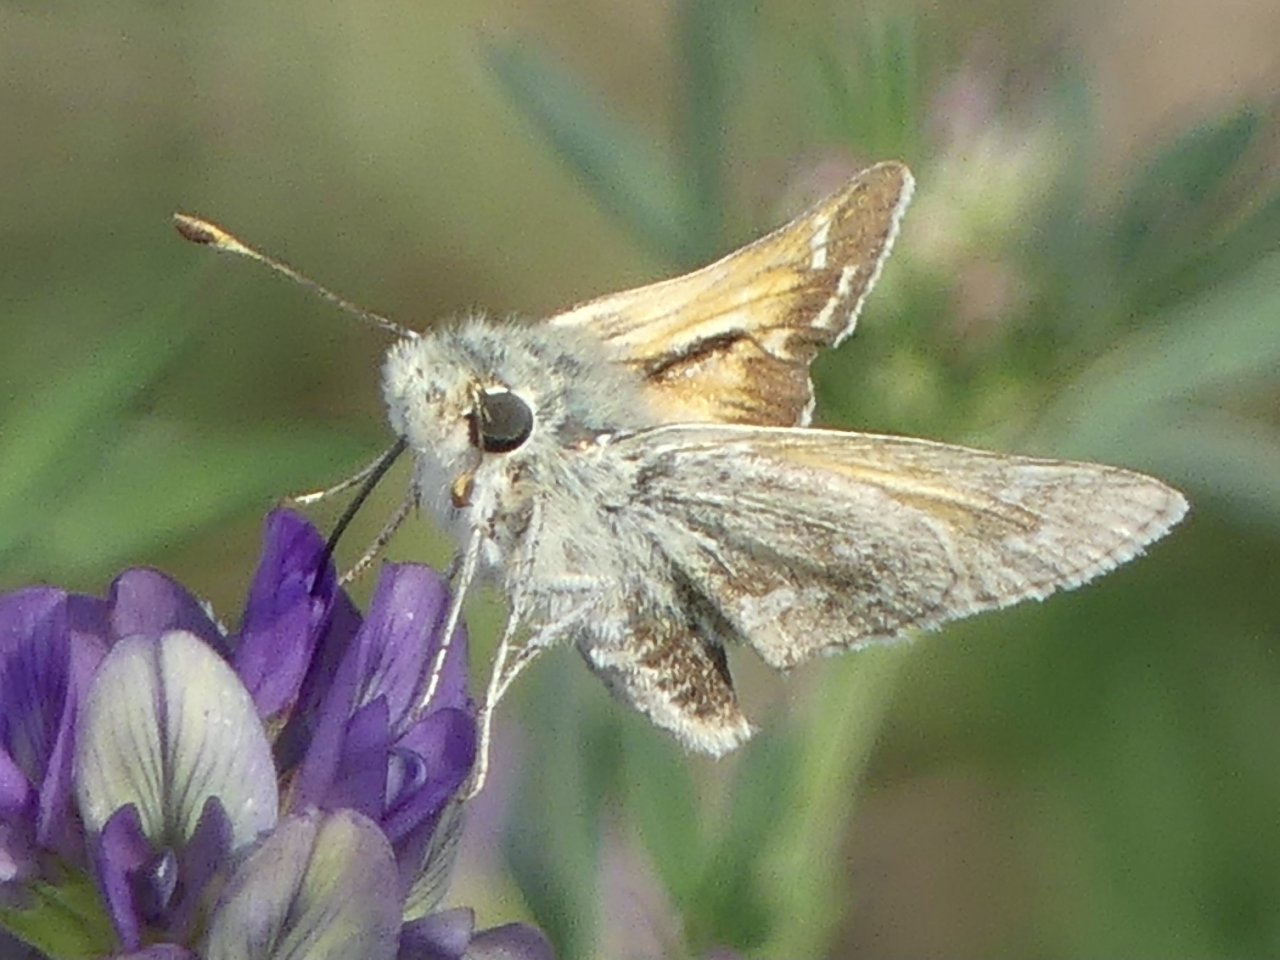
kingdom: Animalia
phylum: Arthropoda
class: Insecta
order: Lepidoptera
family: Hesperiidae
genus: Hesperia
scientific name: Hesperia comma
